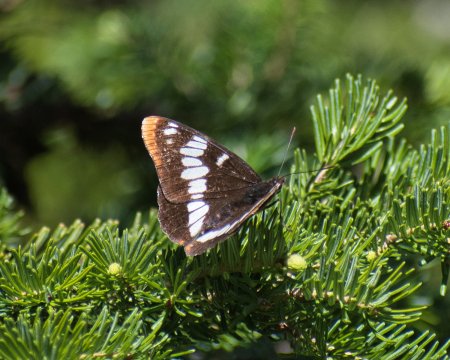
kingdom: Animalia
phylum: Arthropoda
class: Insecta
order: Lepidoptera
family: Nymphalidae
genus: Limenitis
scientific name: Limenitis lorquini
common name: Lorquin's Admiral
